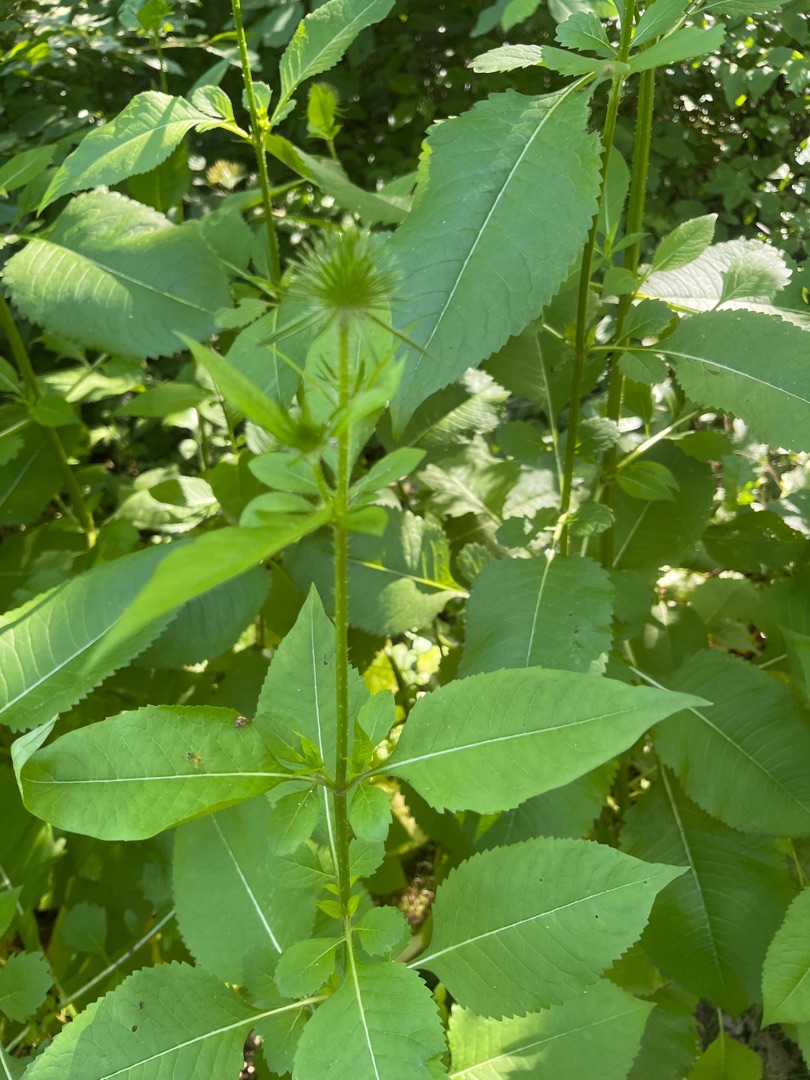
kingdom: Plantae
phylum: Tracheophyta
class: Magnoliopsida
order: Dipsacales
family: Caprifoliaceae
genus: Dipsacus
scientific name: Dipsacus strigosus
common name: Pindsvin-kartebolle
